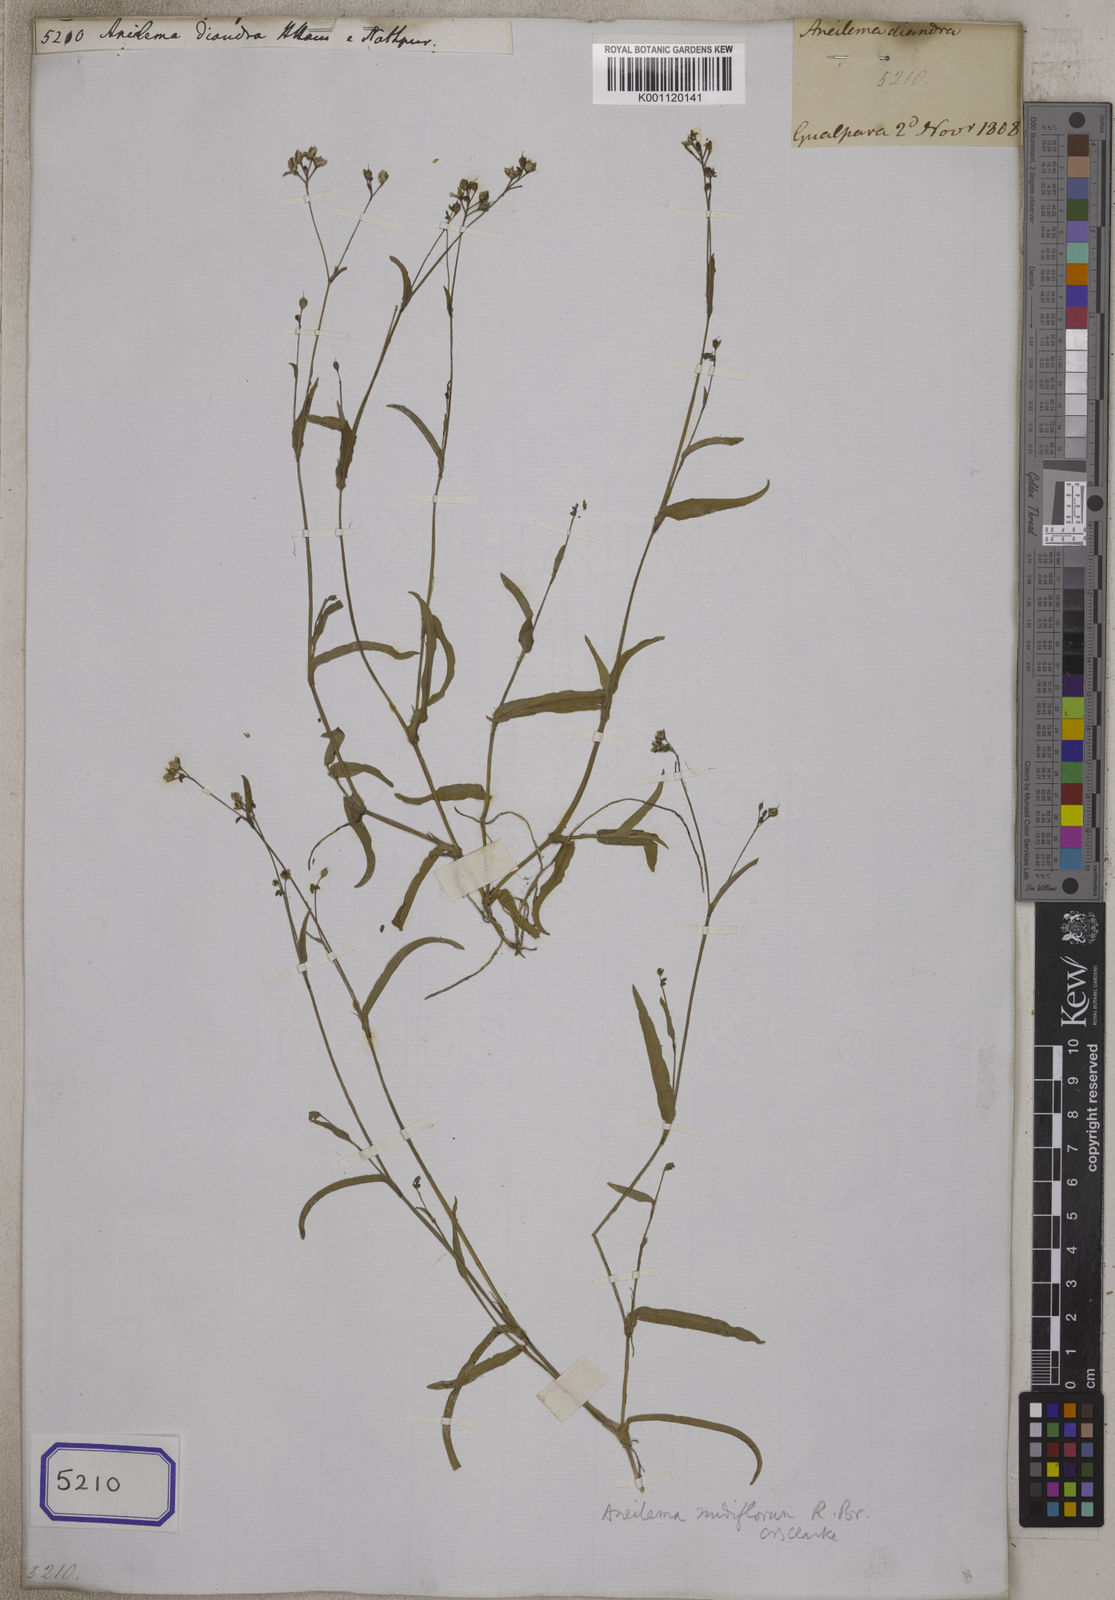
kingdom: Plantae
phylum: Tracheophyta
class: Liliopsida
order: Commelinales
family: Commelinaceae
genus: Aneilema
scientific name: Aneilema
